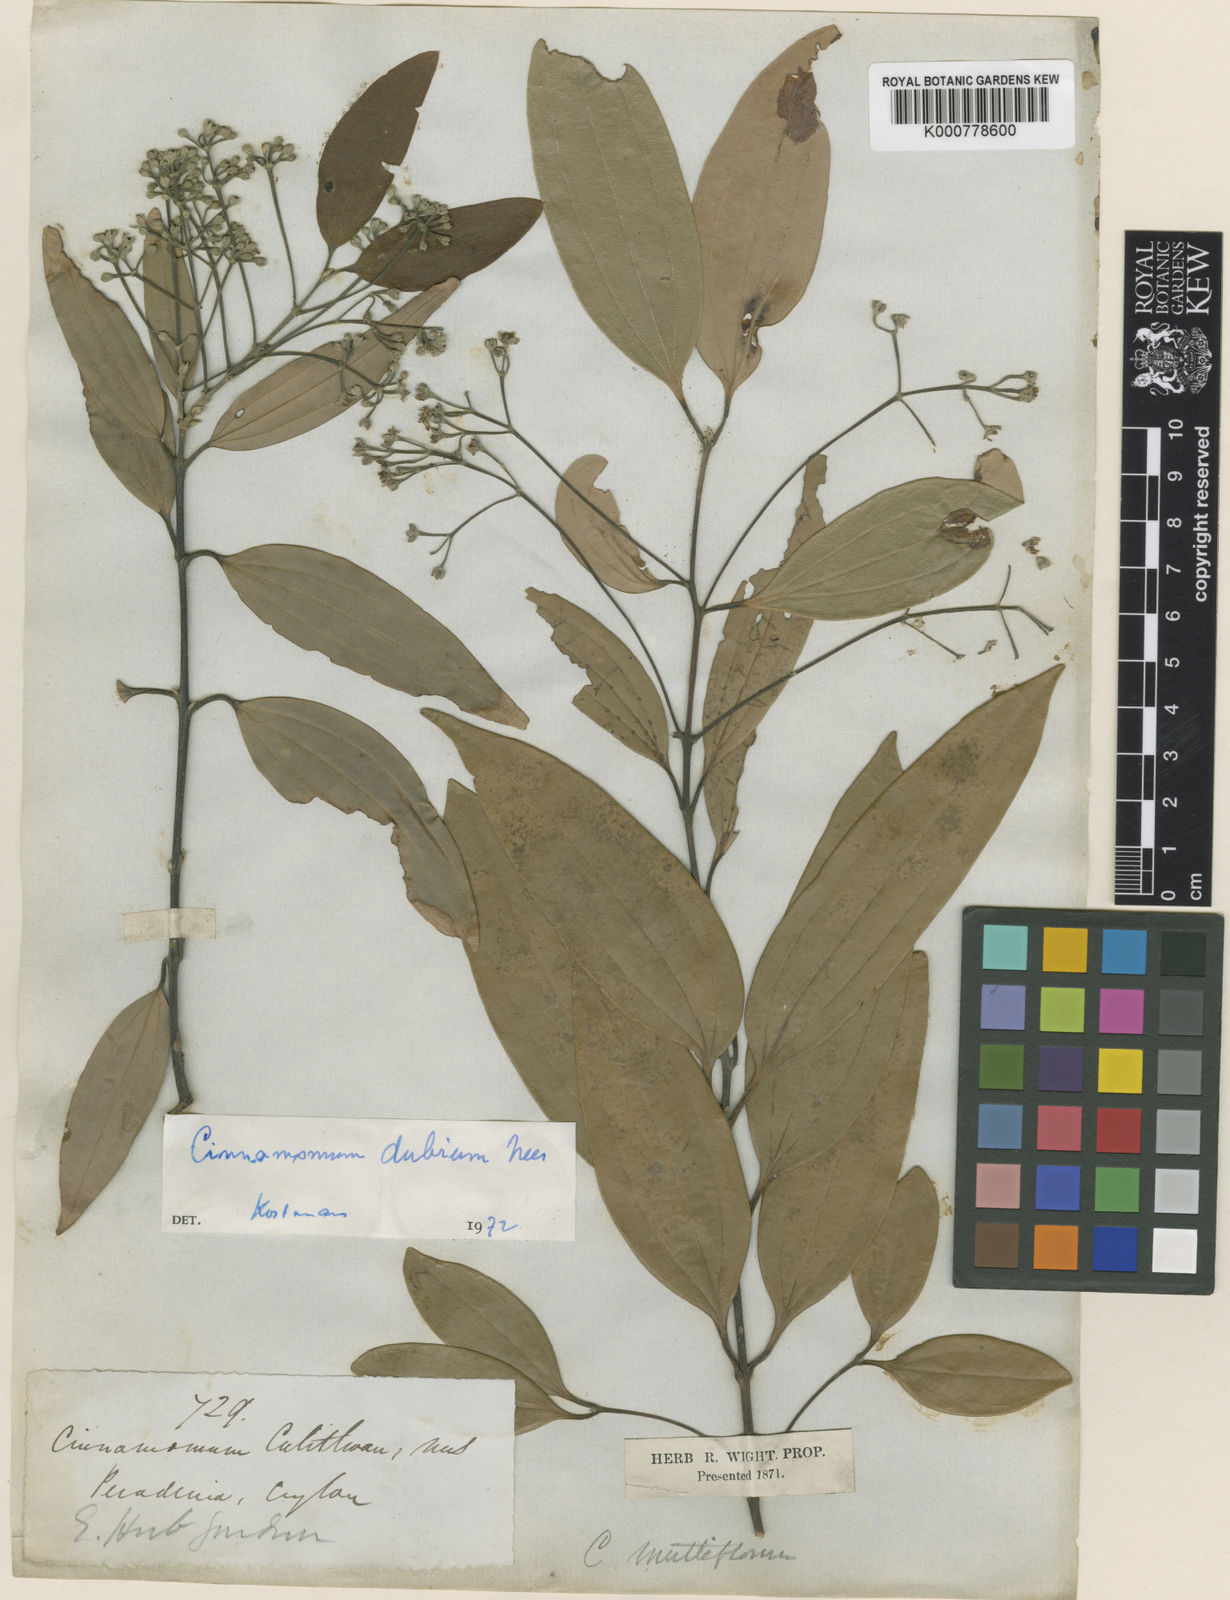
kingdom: Plantae
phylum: Tracheophyta
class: Magnoliopsida
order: Laurales
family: Lauraceae
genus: Cinnamomum
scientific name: Cinnamomum dubium
